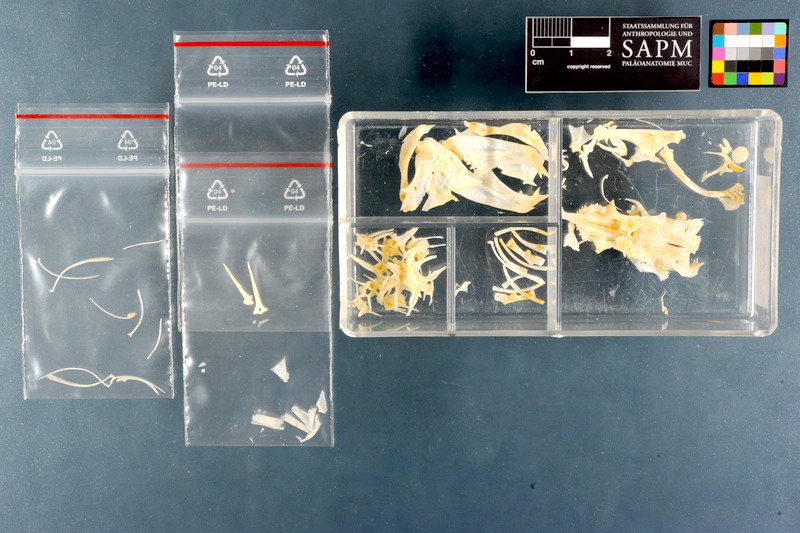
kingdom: Animalia
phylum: Chordata
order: Siluriformes
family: Plotosidae
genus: Plotosus
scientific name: Plotosus lineatus
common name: Striped eel catfish
